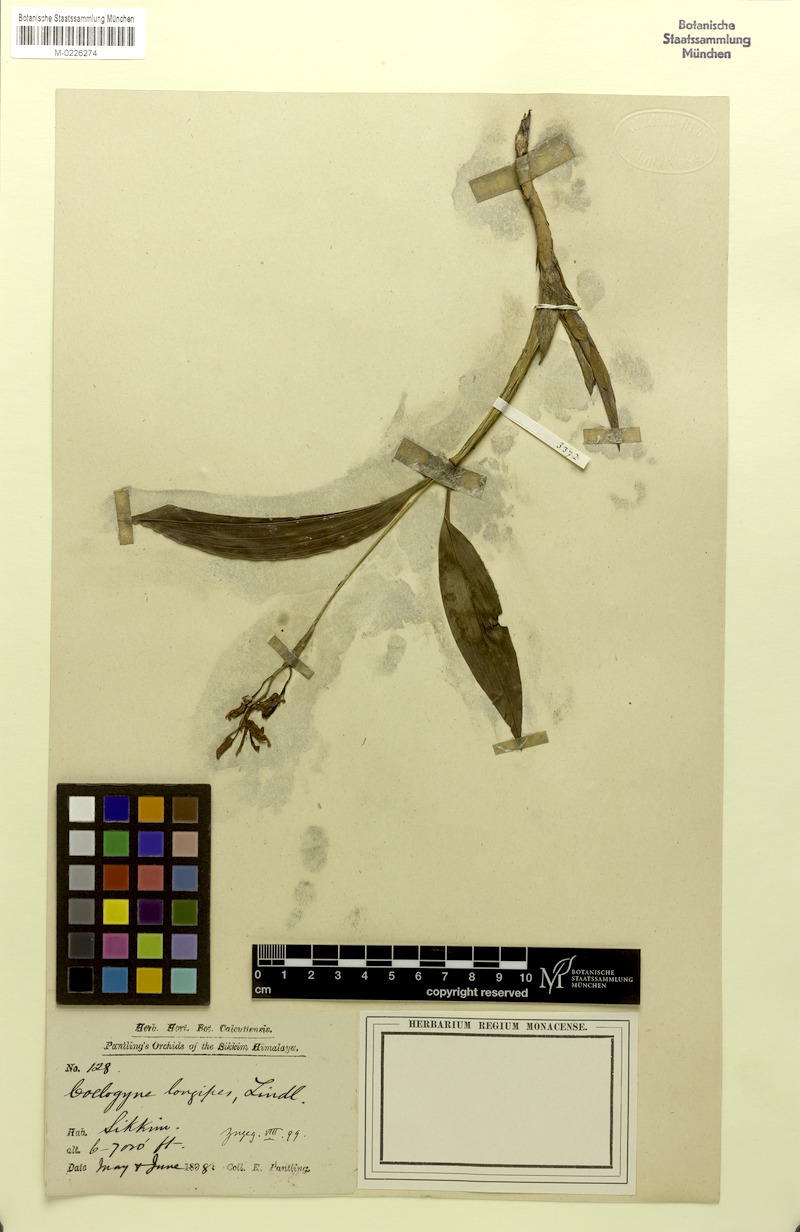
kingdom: Plantae
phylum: Tracheophyta
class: Liliopsida
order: Asparagales
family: Orchidaceae
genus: Coelogyne
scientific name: Coelogyne longipes
